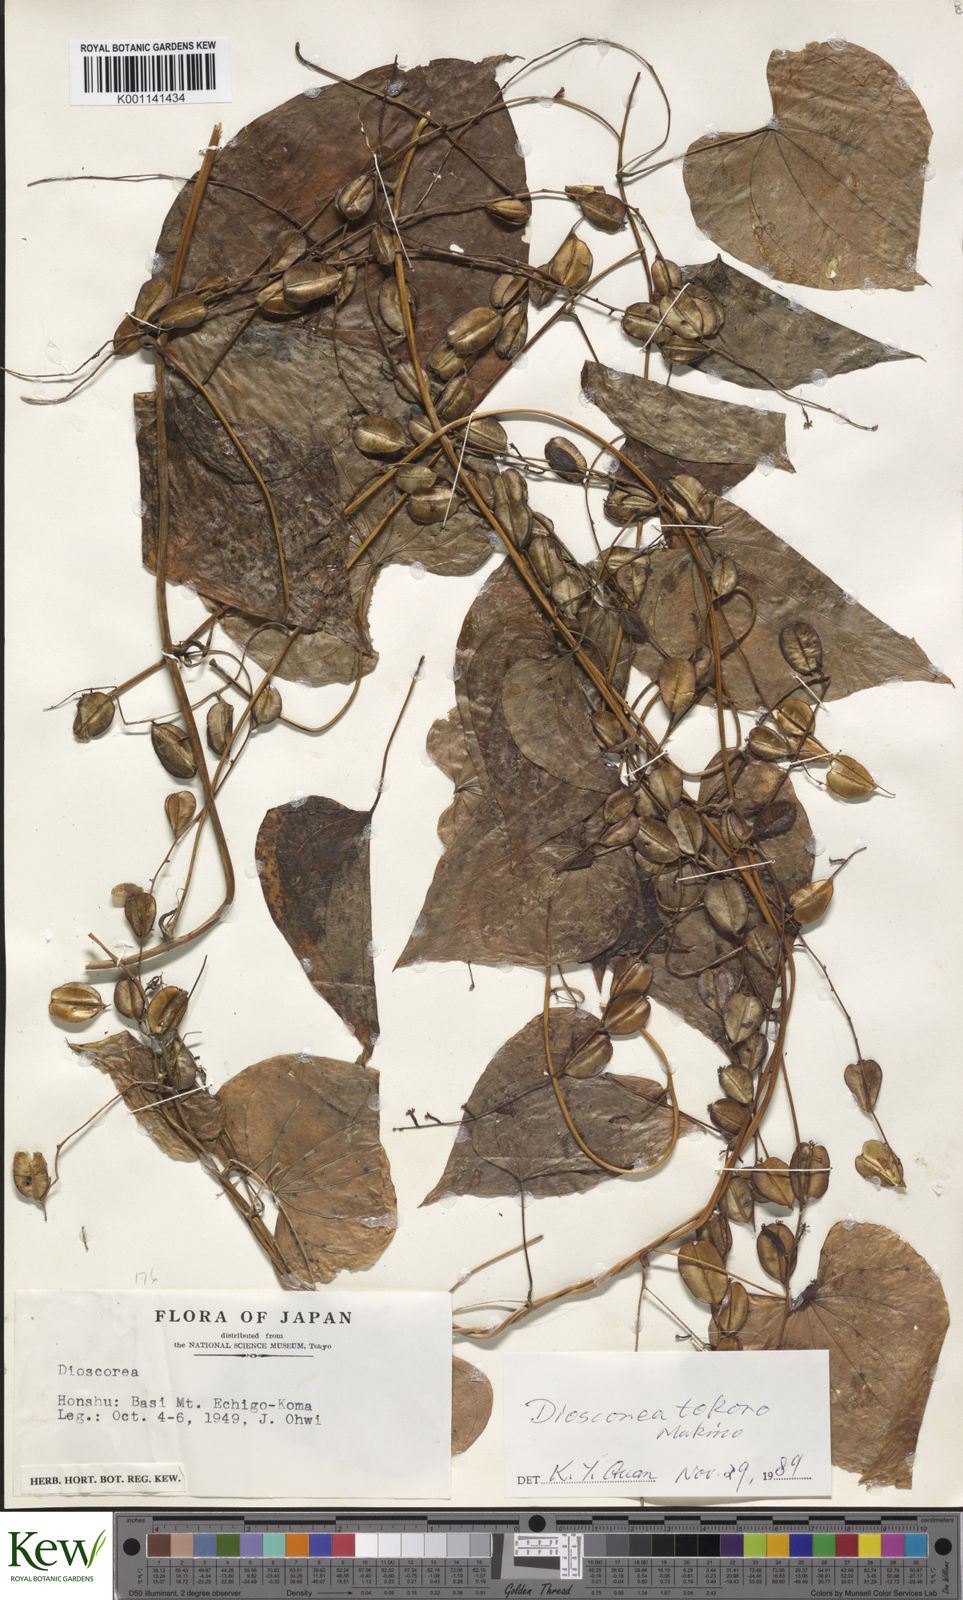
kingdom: Plantae
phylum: Tracheophyta
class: Liliopsida
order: Dioscoreales
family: Dioscoreaceae
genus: Dioscorea
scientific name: Dioscorea tokoro
